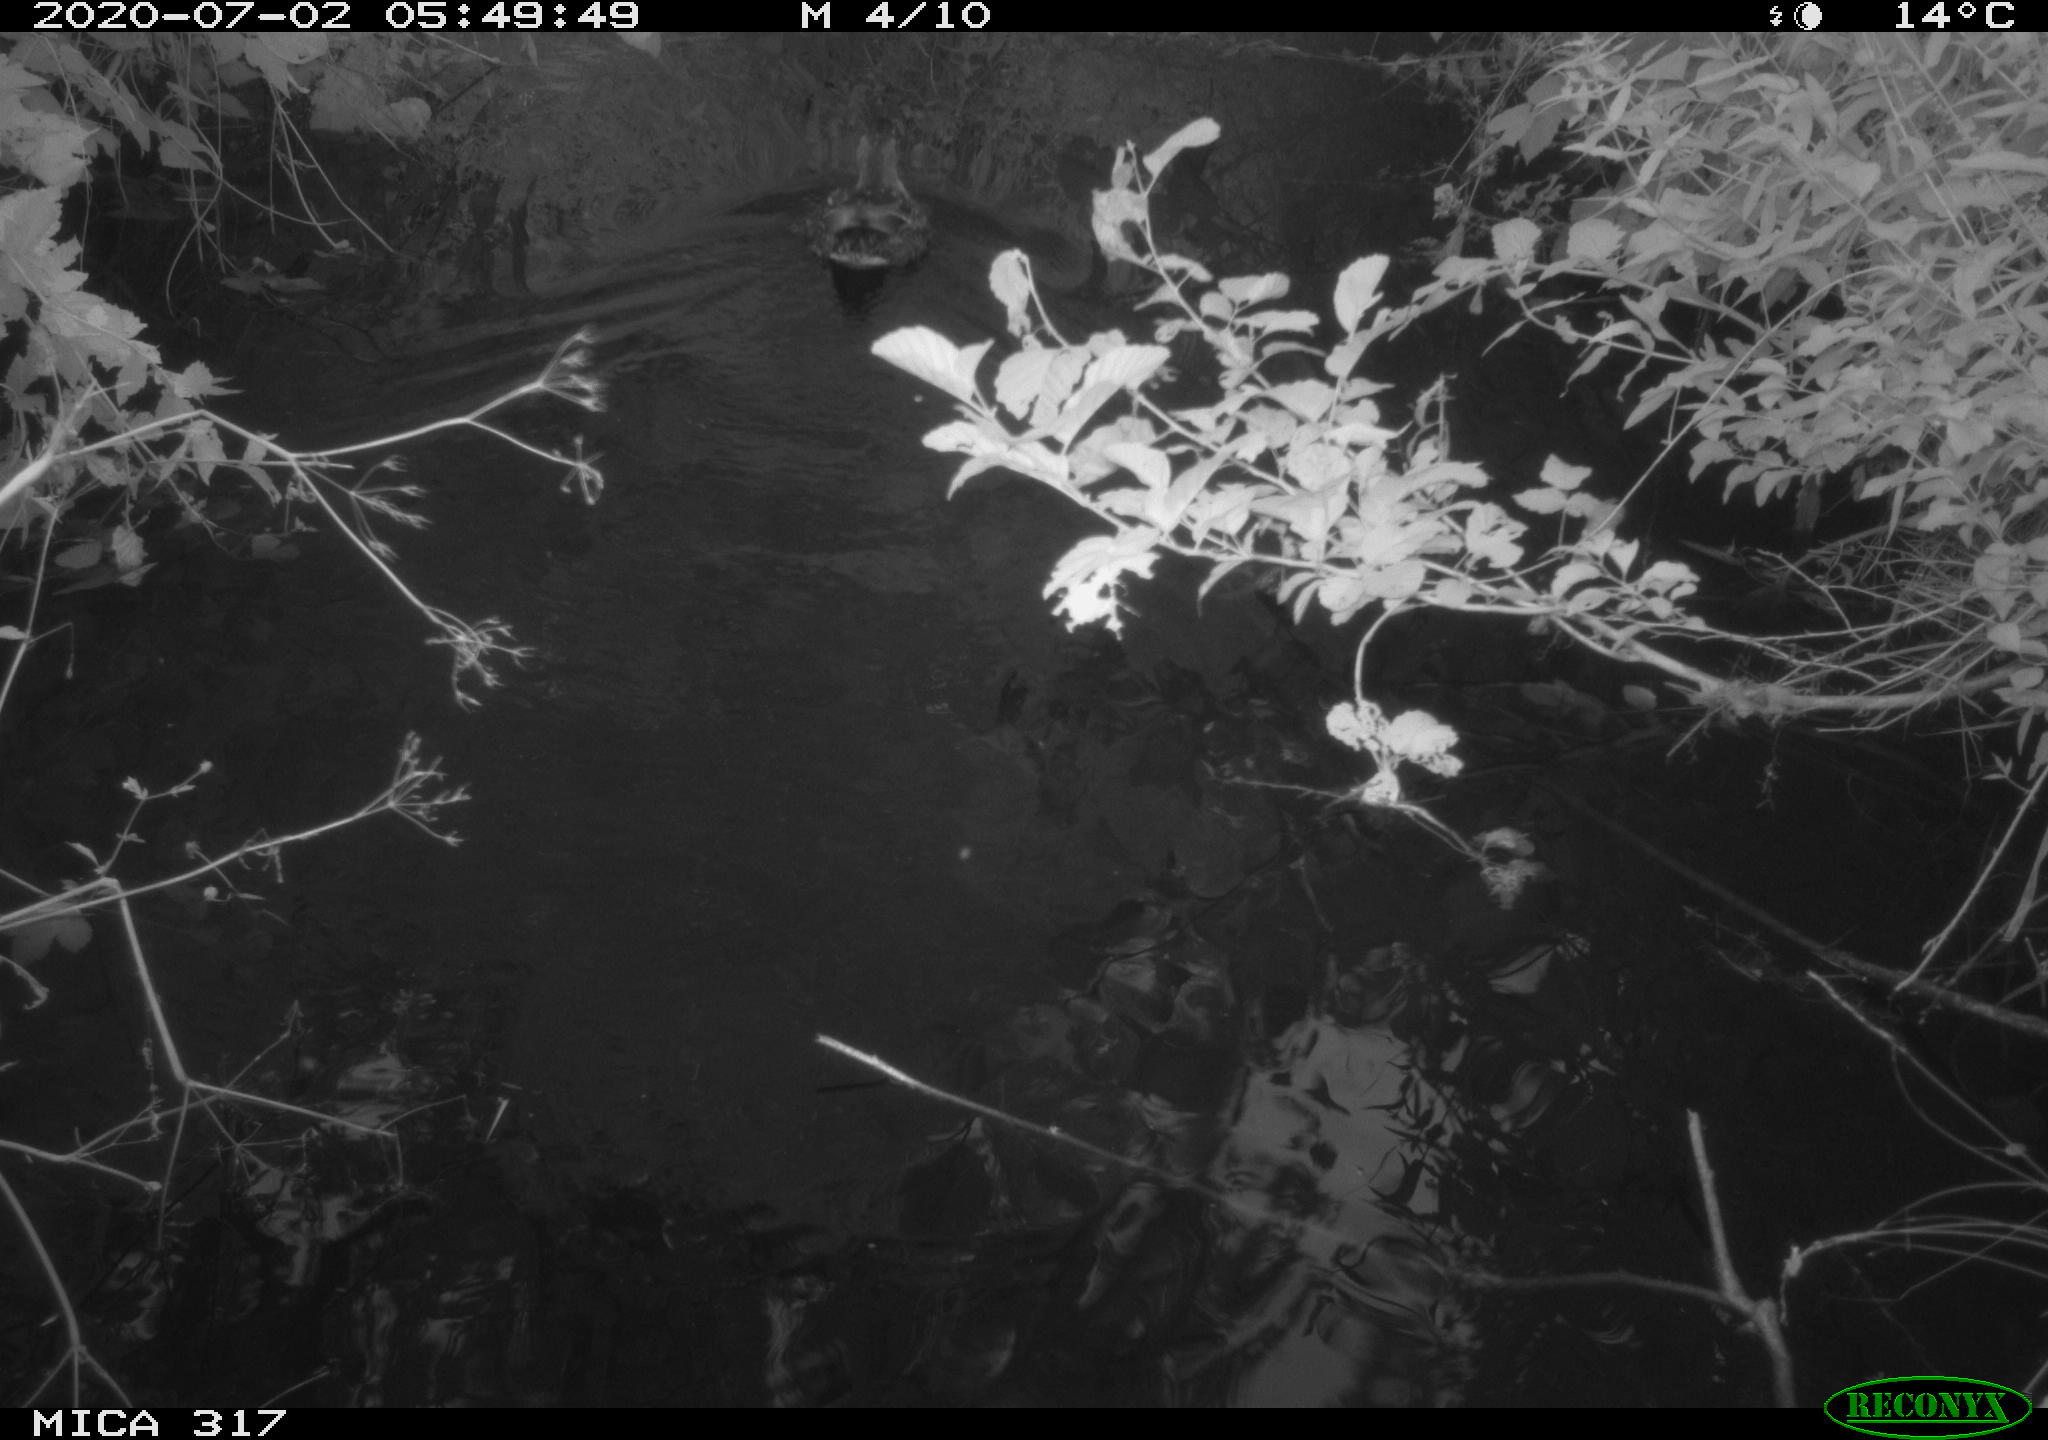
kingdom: Animalia
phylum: Chordata
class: Aves
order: Anseriformes
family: Anatidae
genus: Anas
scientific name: Anas platyrhynchos
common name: Mallard
